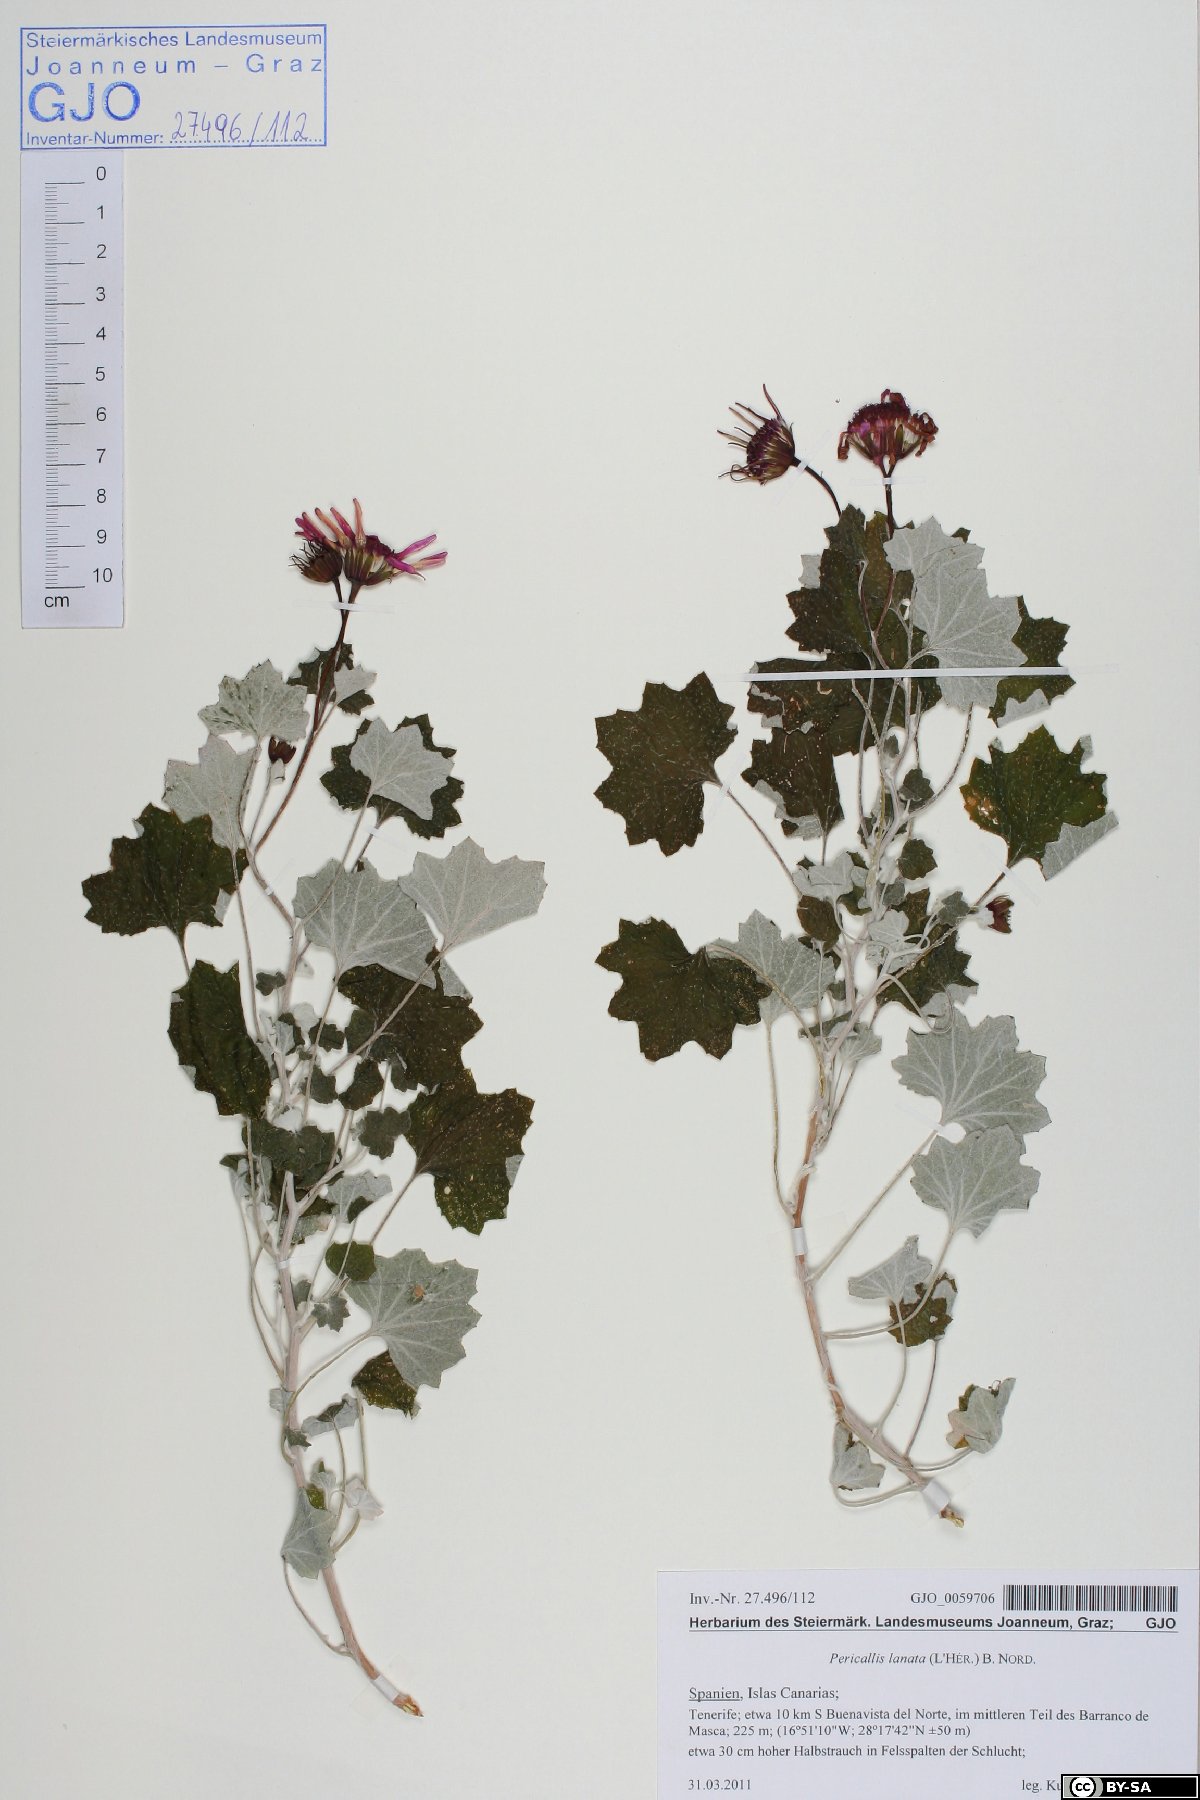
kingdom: Plantae
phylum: Tracheophyta
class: Magnoliopsida
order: Asterales
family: Asteraceae
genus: Pericallis
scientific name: Pericallis lanata
